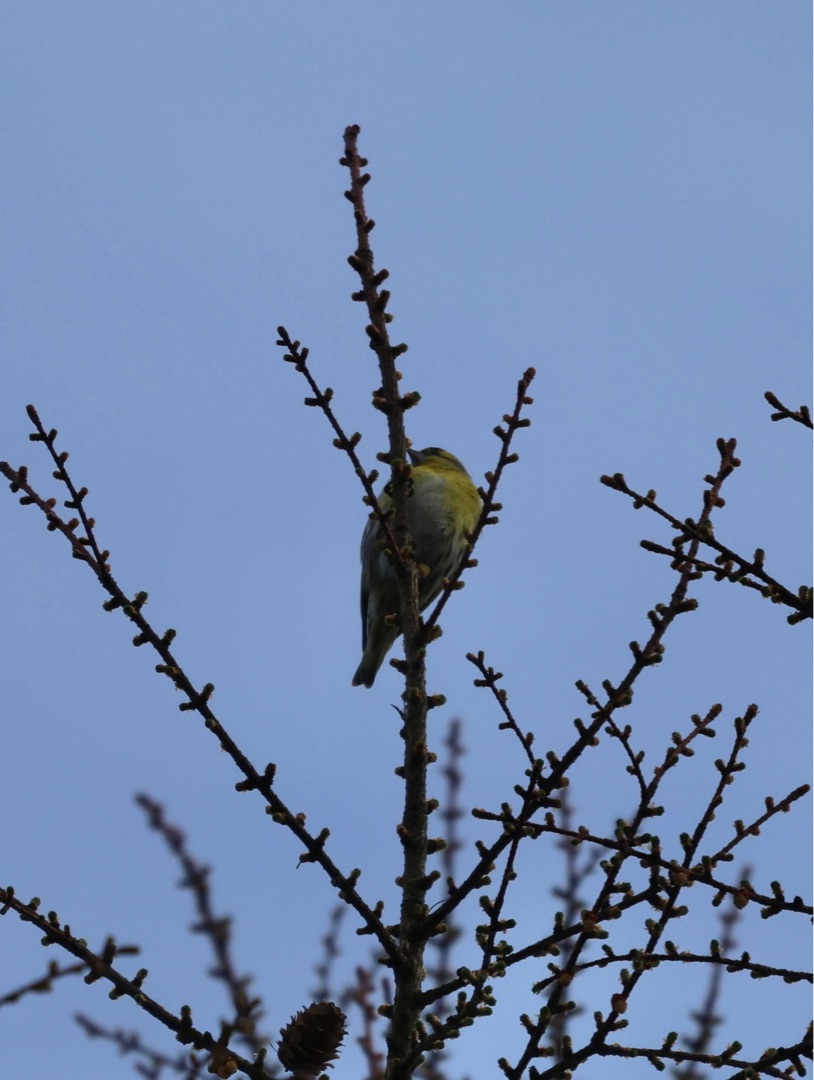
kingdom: Animalia
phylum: Chordata
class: Aves
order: Passeriformes
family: Fringillidae
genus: Spinus
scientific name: Spinus spinus
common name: Grønsisken
